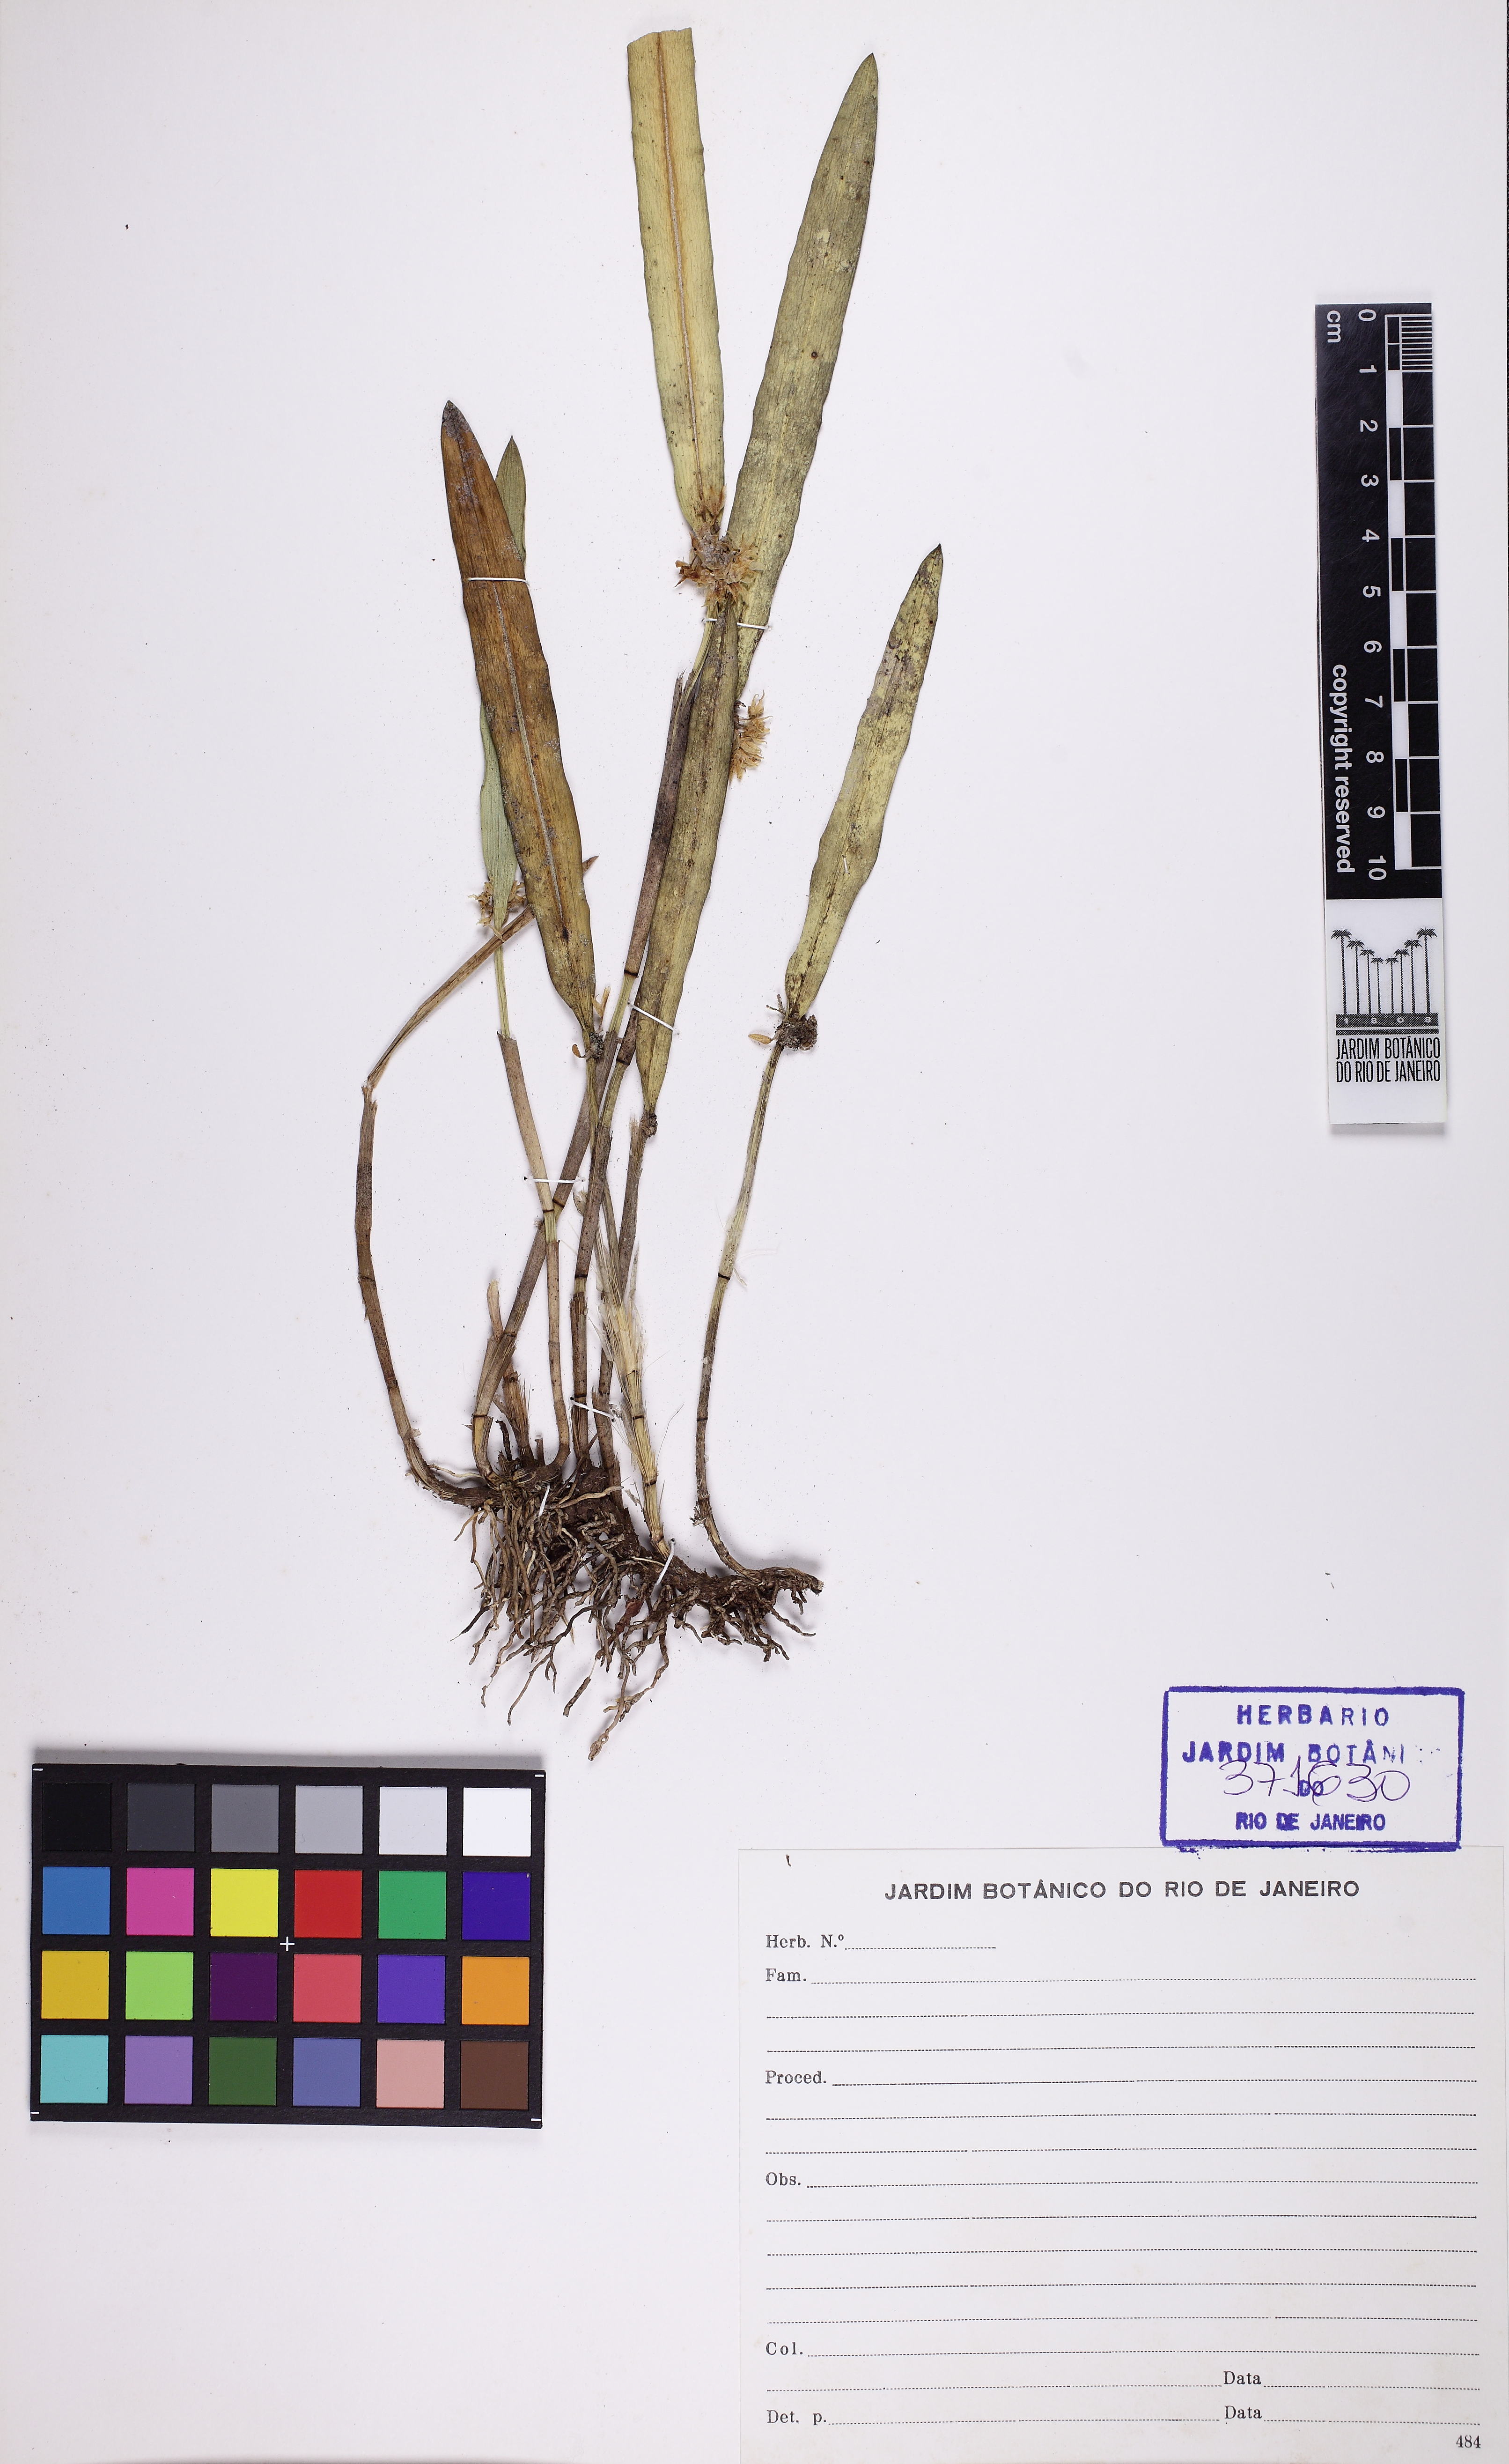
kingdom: Plantae
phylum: Tracheophyta
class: Liliopsida
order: Asparagales
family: Orchidaceae
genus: Octomeria
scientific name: Octomeria
